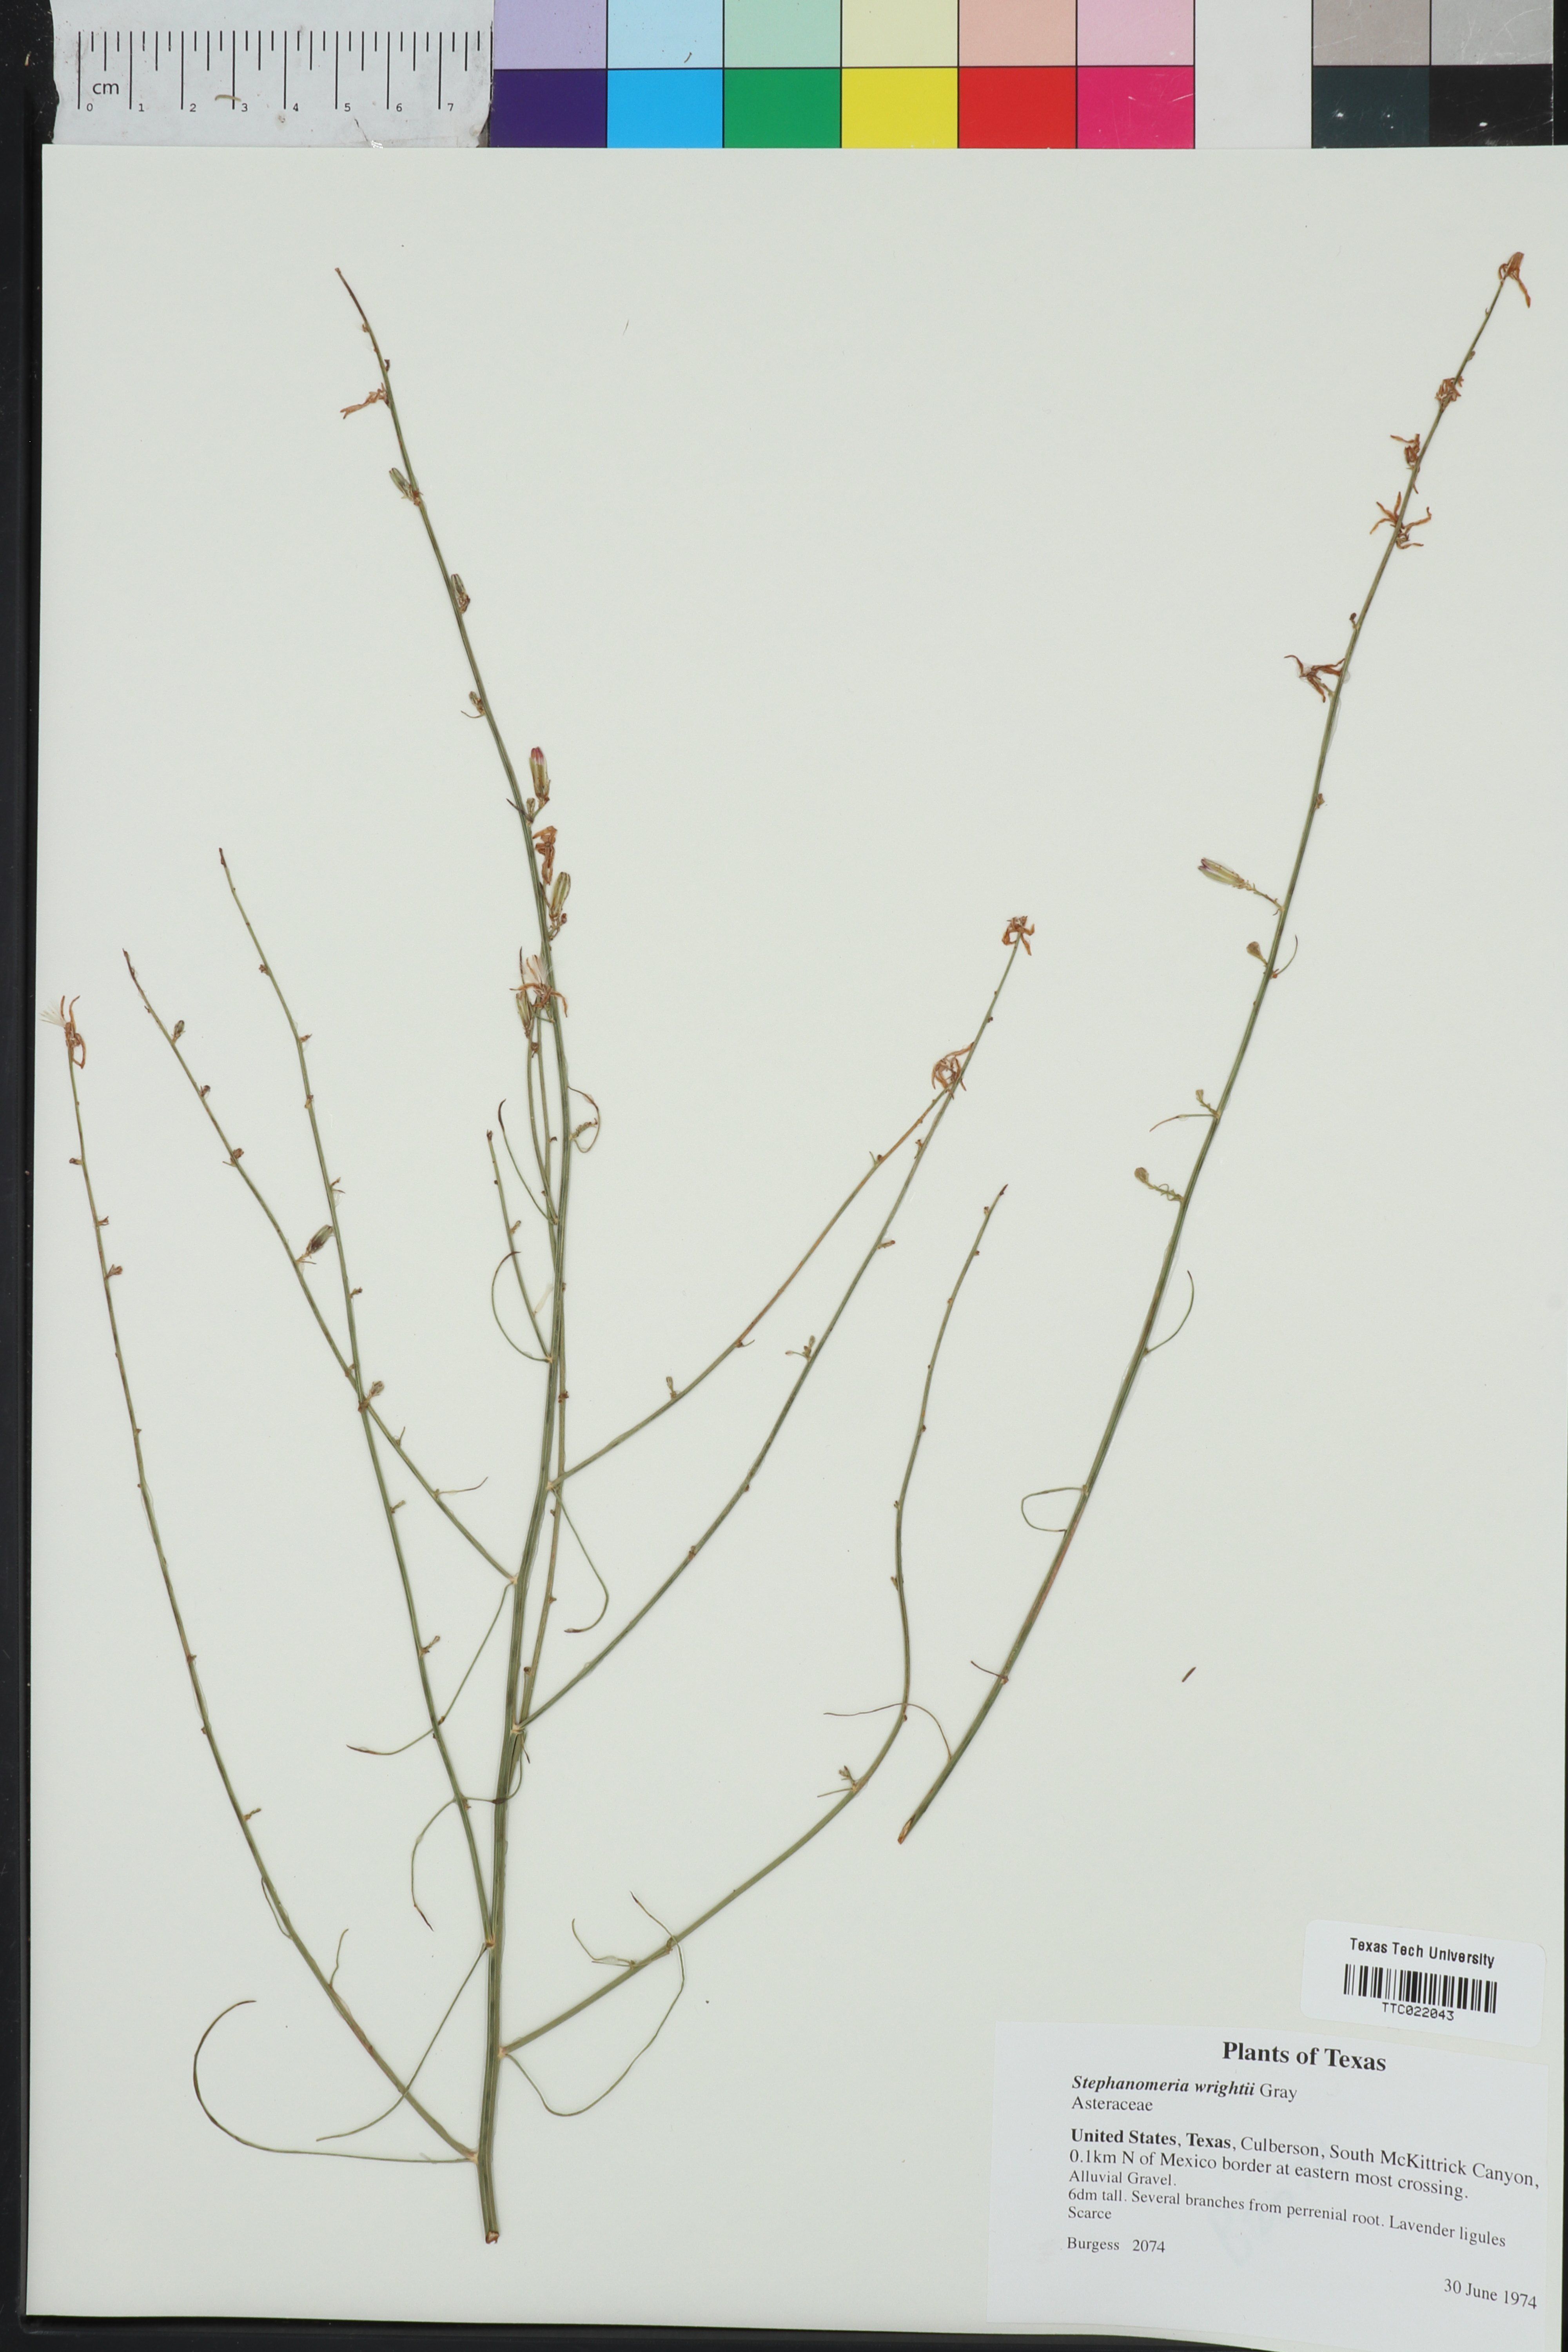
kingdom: Plantae
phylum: Tracheophyta
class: Magnoliopsida
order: Asterales
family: Asteraceae
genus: Stephanomeria
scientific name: Stephanomeria tenuifolia
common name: Slender wirelettuce
